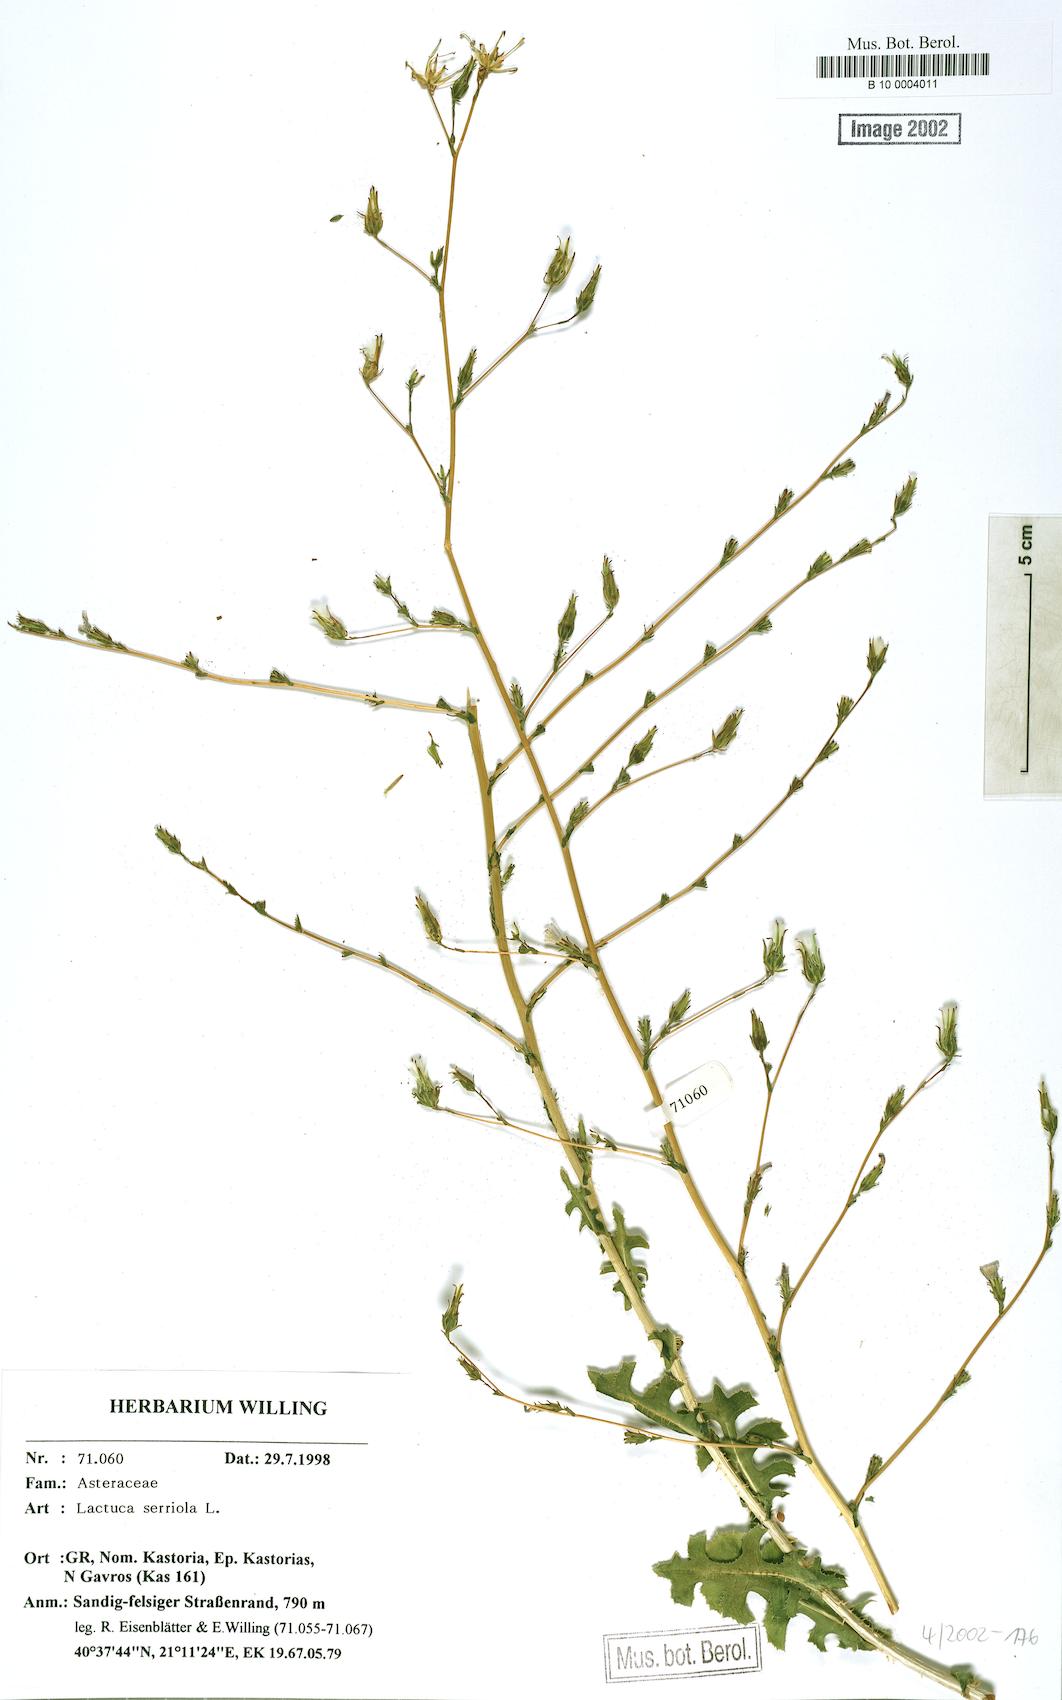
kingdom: Plantae
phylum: Tracheophyta
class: Magnoliopsida
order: Asterales
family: Asteraceae
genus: Lactuca
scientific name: Lactuca serriola
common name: Prickly lettuce
